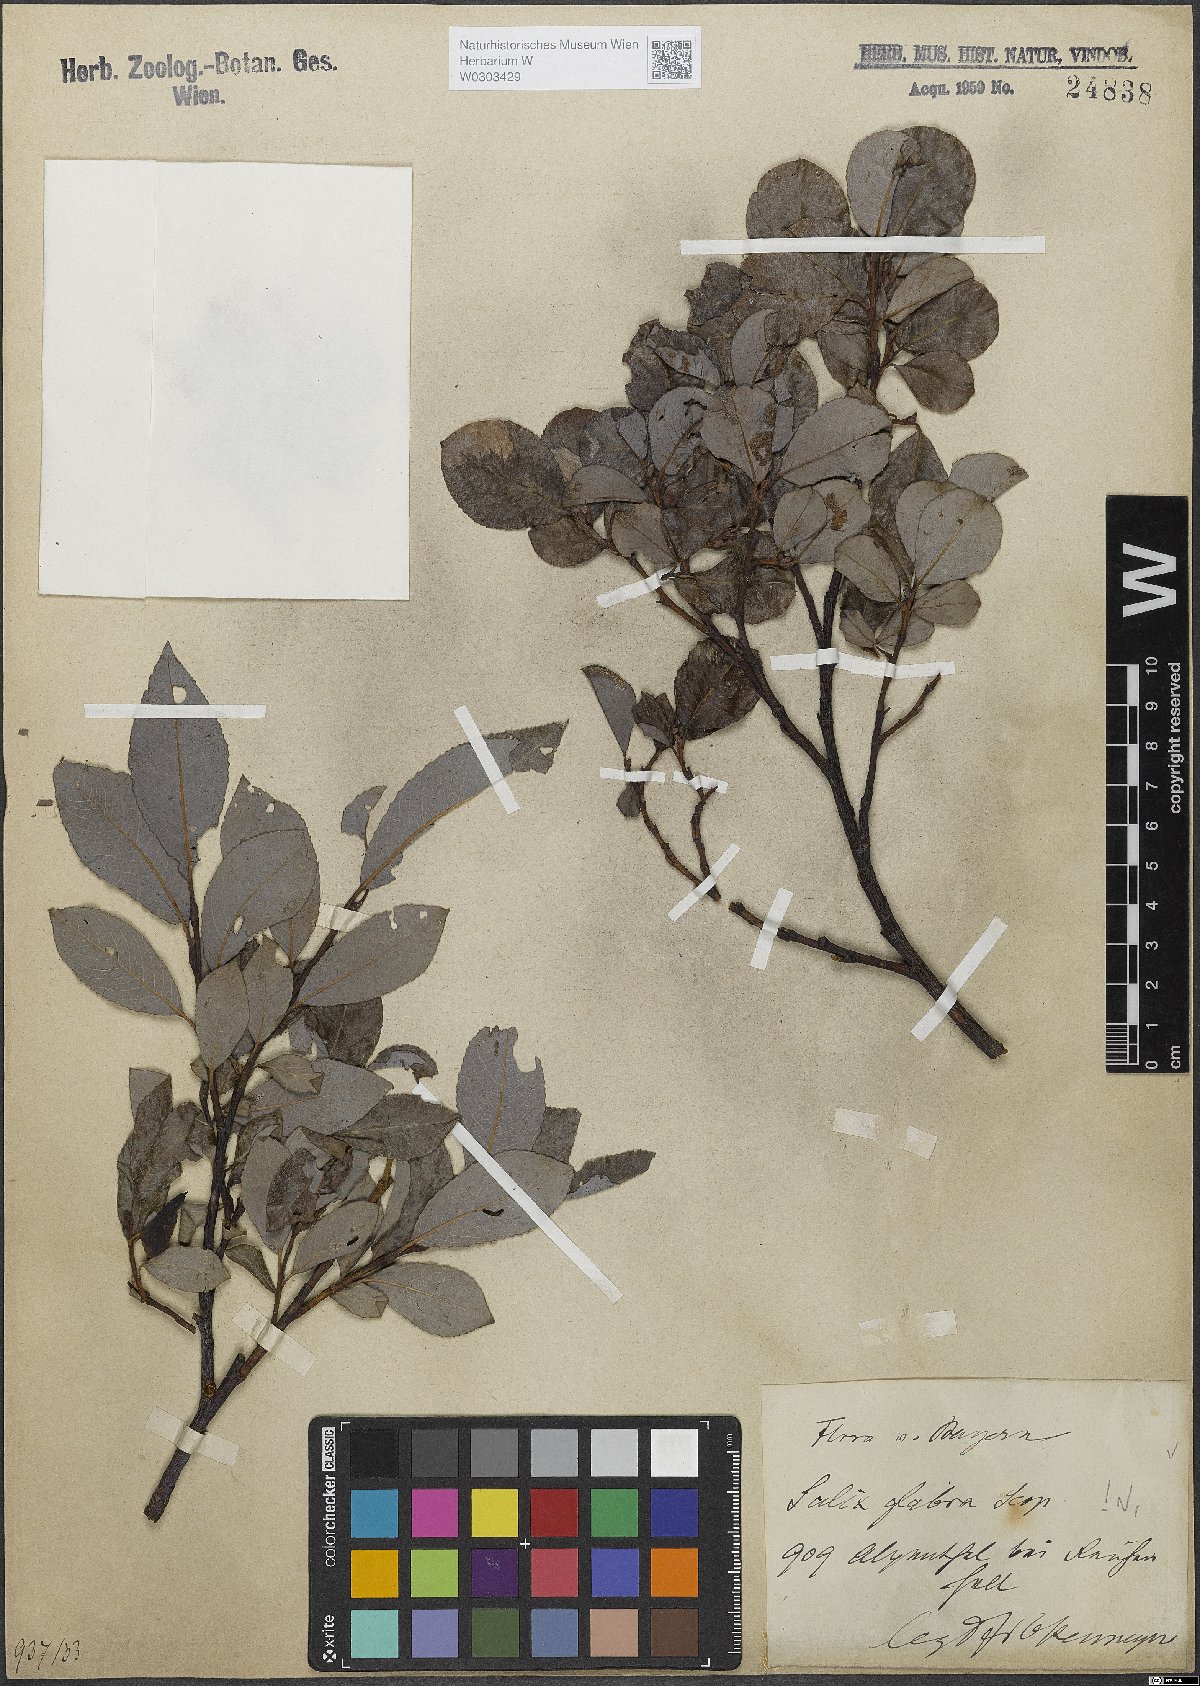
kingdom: Plantae
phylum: Tracheophyta
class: Magnoliopsida
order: Malpighiales
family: Salicaceae
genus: Salix
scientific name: Salix glabra
